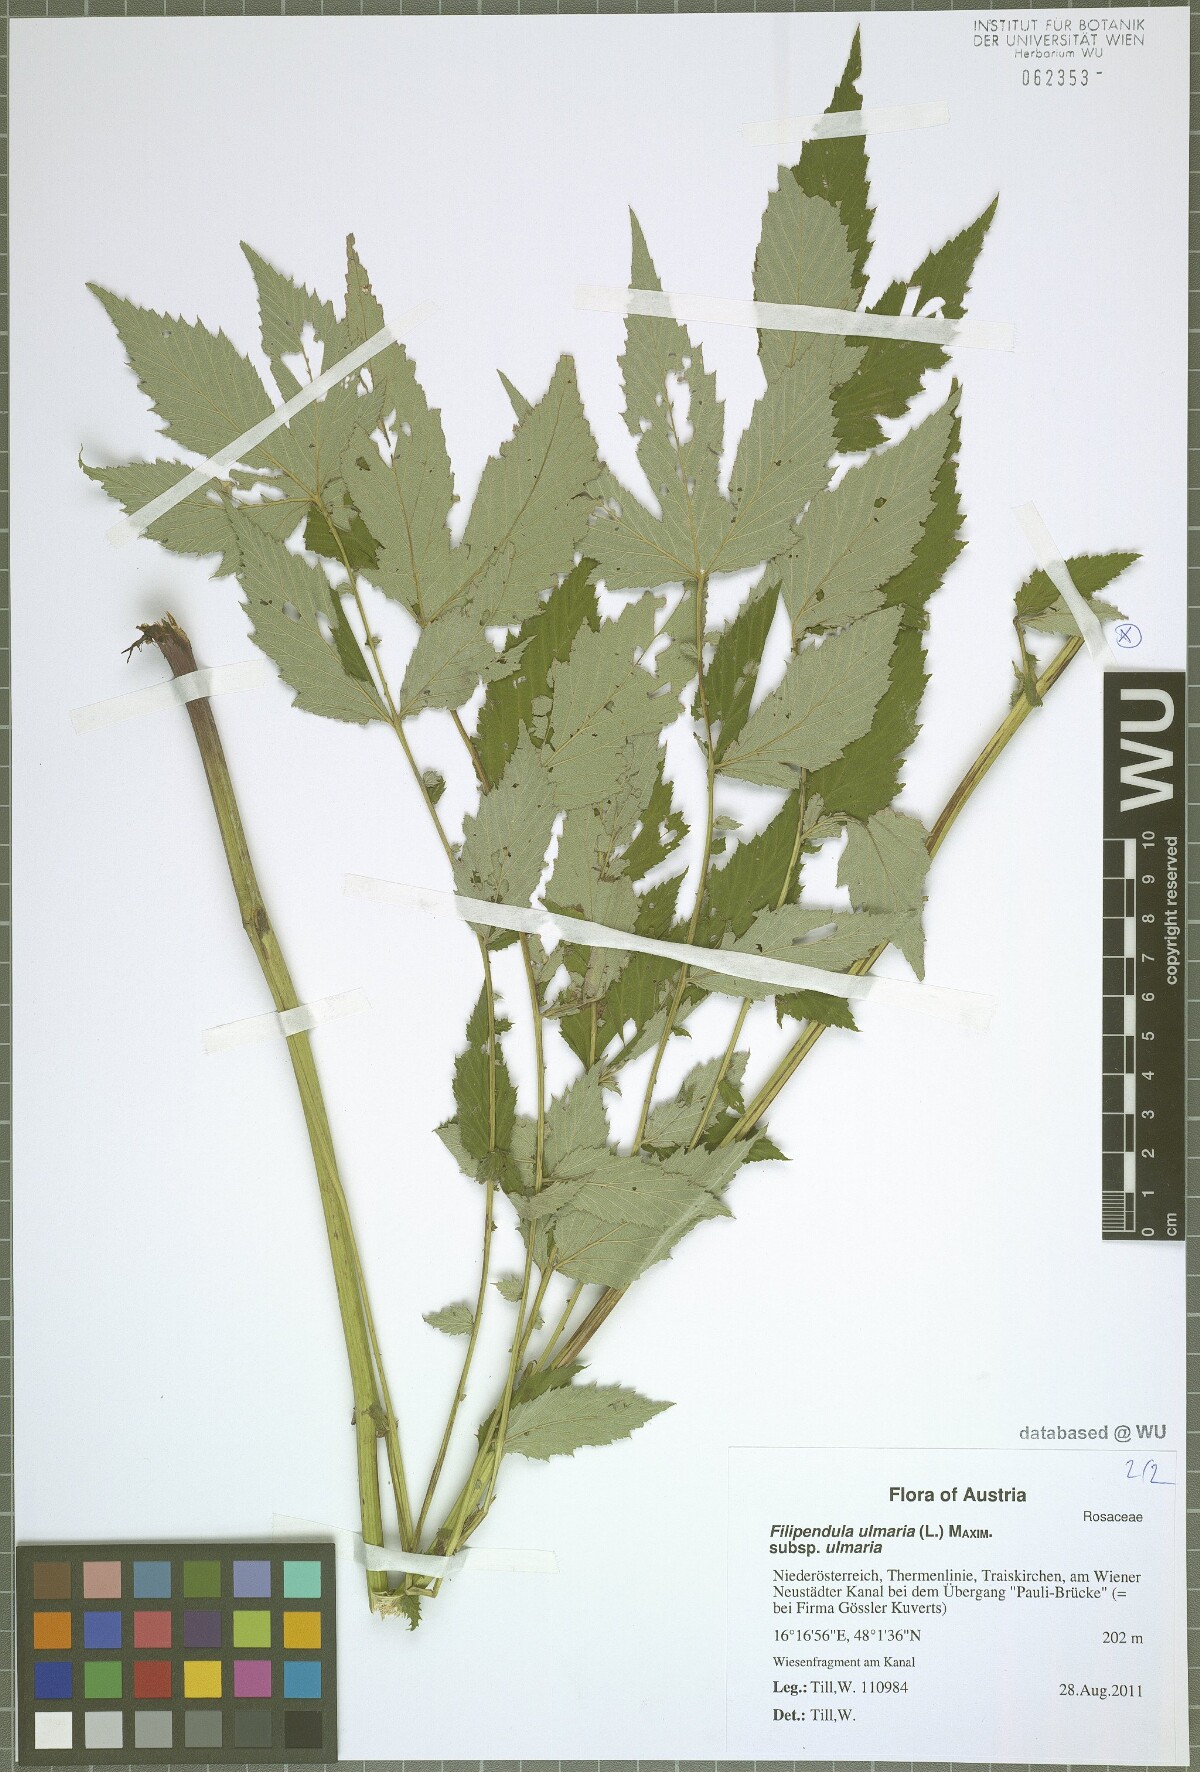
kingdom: Plantae
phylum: Tracheophyta
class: Magnoliopsida
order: Rosales
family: Rosaceae
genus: Filipendula
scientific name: Filipendula ulmaria
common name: Meadowsweet
